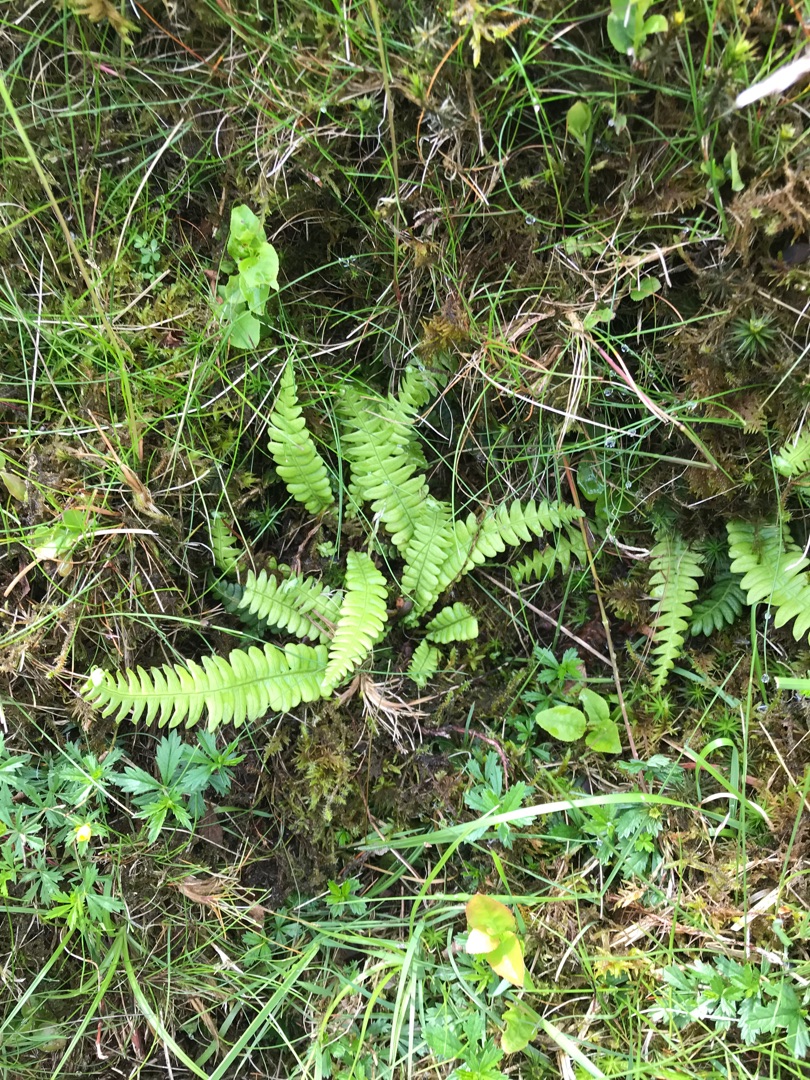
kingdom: Plantae
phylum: Tracheophyta
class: Polypodiopsida
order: Polypodiales
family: Blechnaceae
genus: Struthiopteris
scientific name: Struthiopteris spicant
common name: Kambregne
